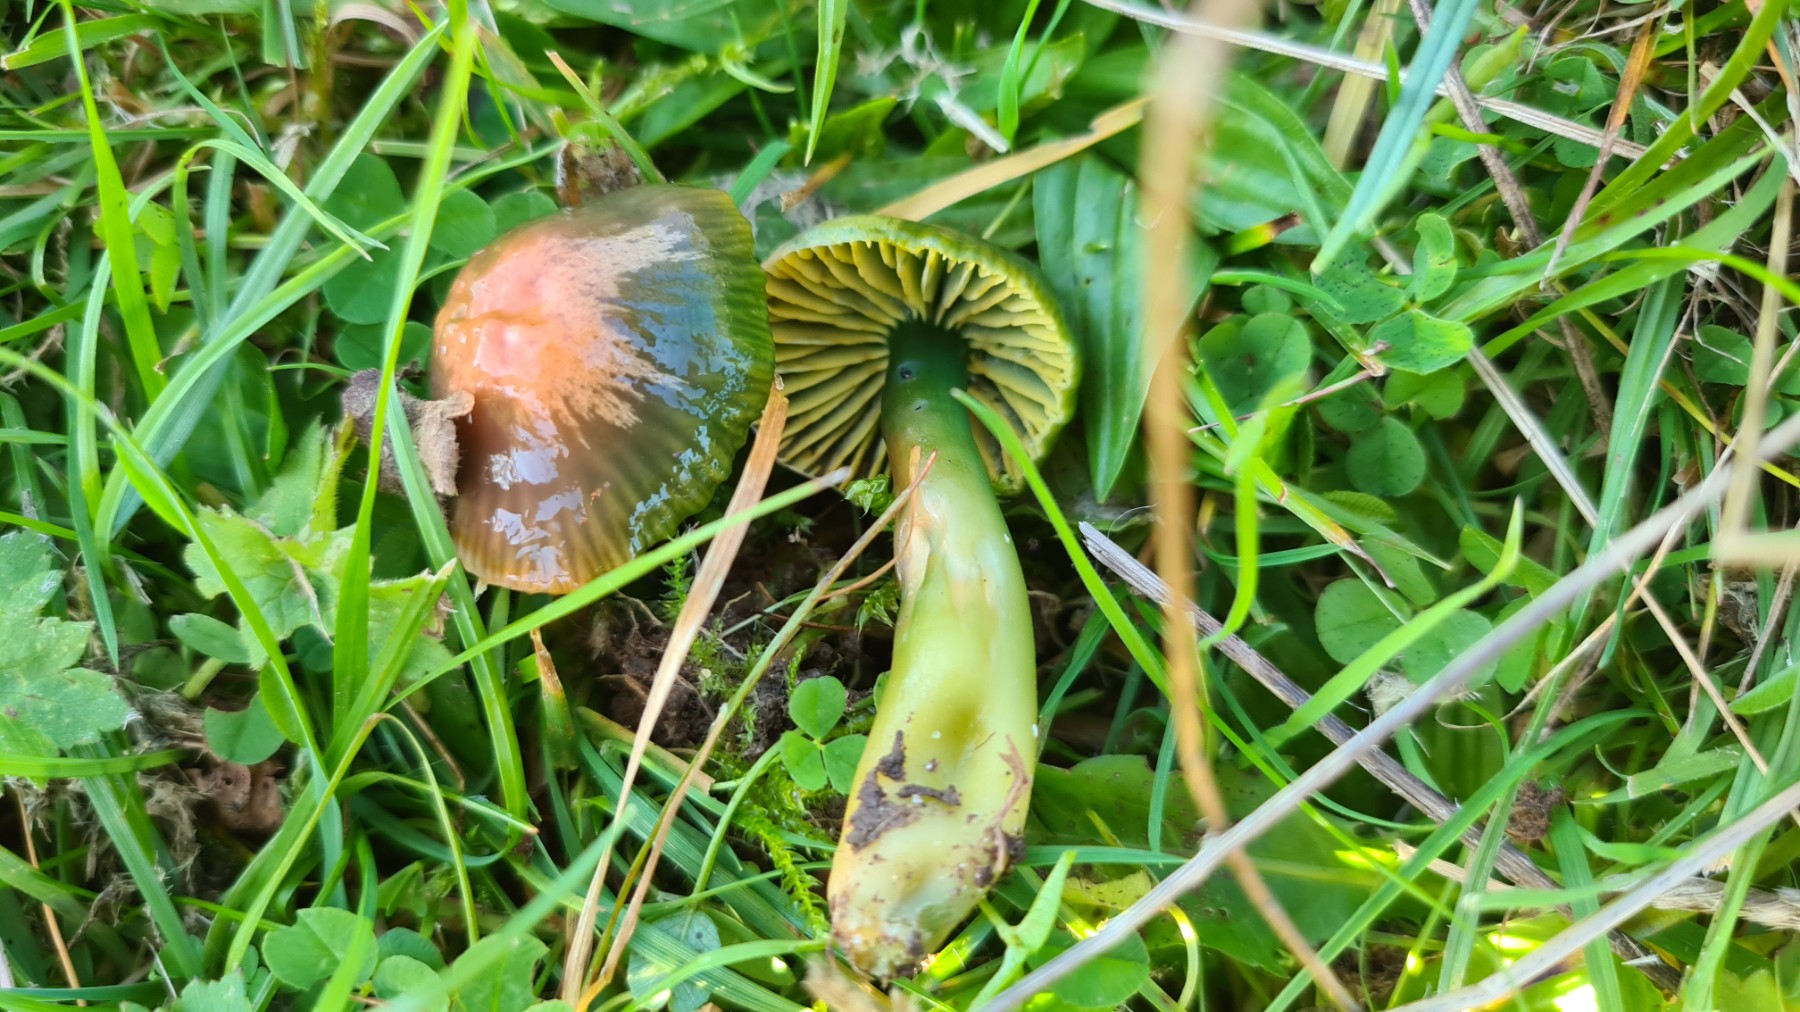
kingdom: Fungi
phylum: Basidiomycota
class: Agaricomycetes
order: Agaricales
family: Hygrophoraceae
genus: Gliophorus
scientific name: Gliophorus psittacinus
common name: papegøje-vokshat
